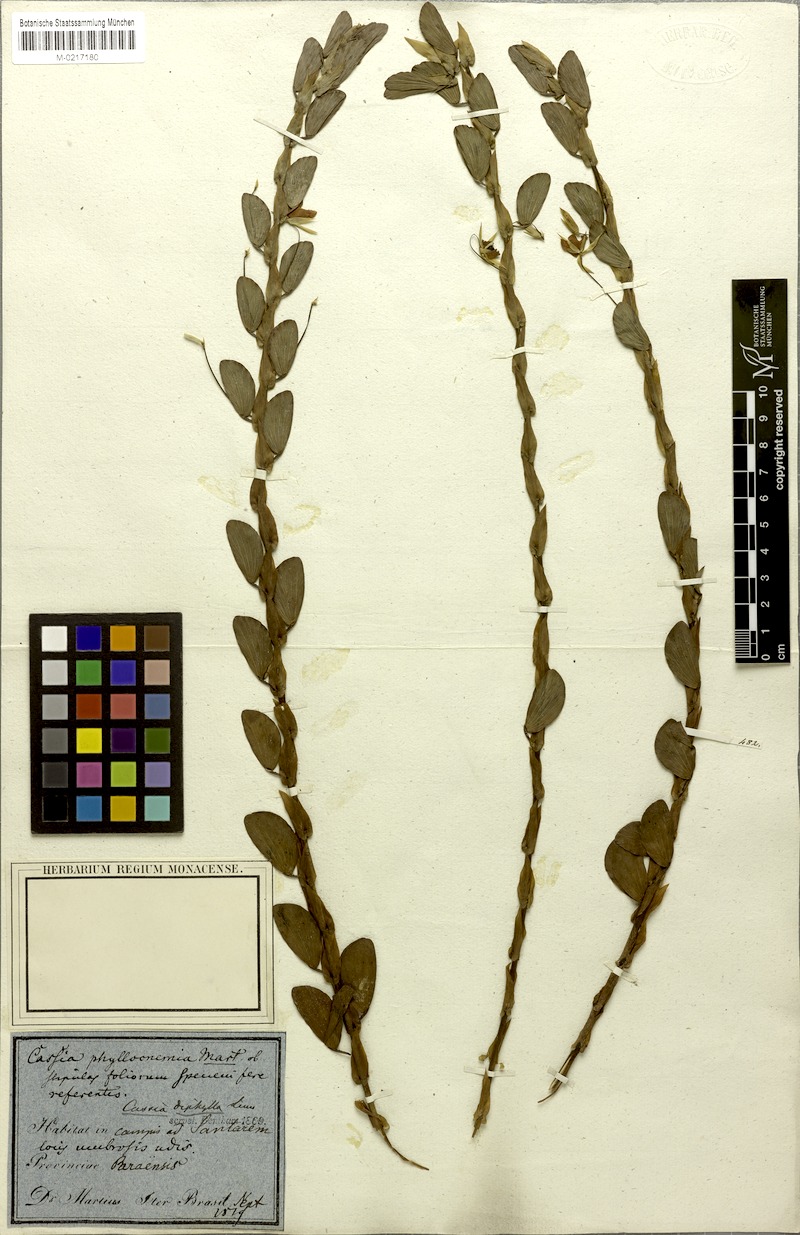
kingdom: Plantae
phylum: Tracheophyta
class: Magnoliopsida
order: Fabales
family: Fabaceae
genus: Chamaecrista
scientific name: Chamaecrista diphylla
